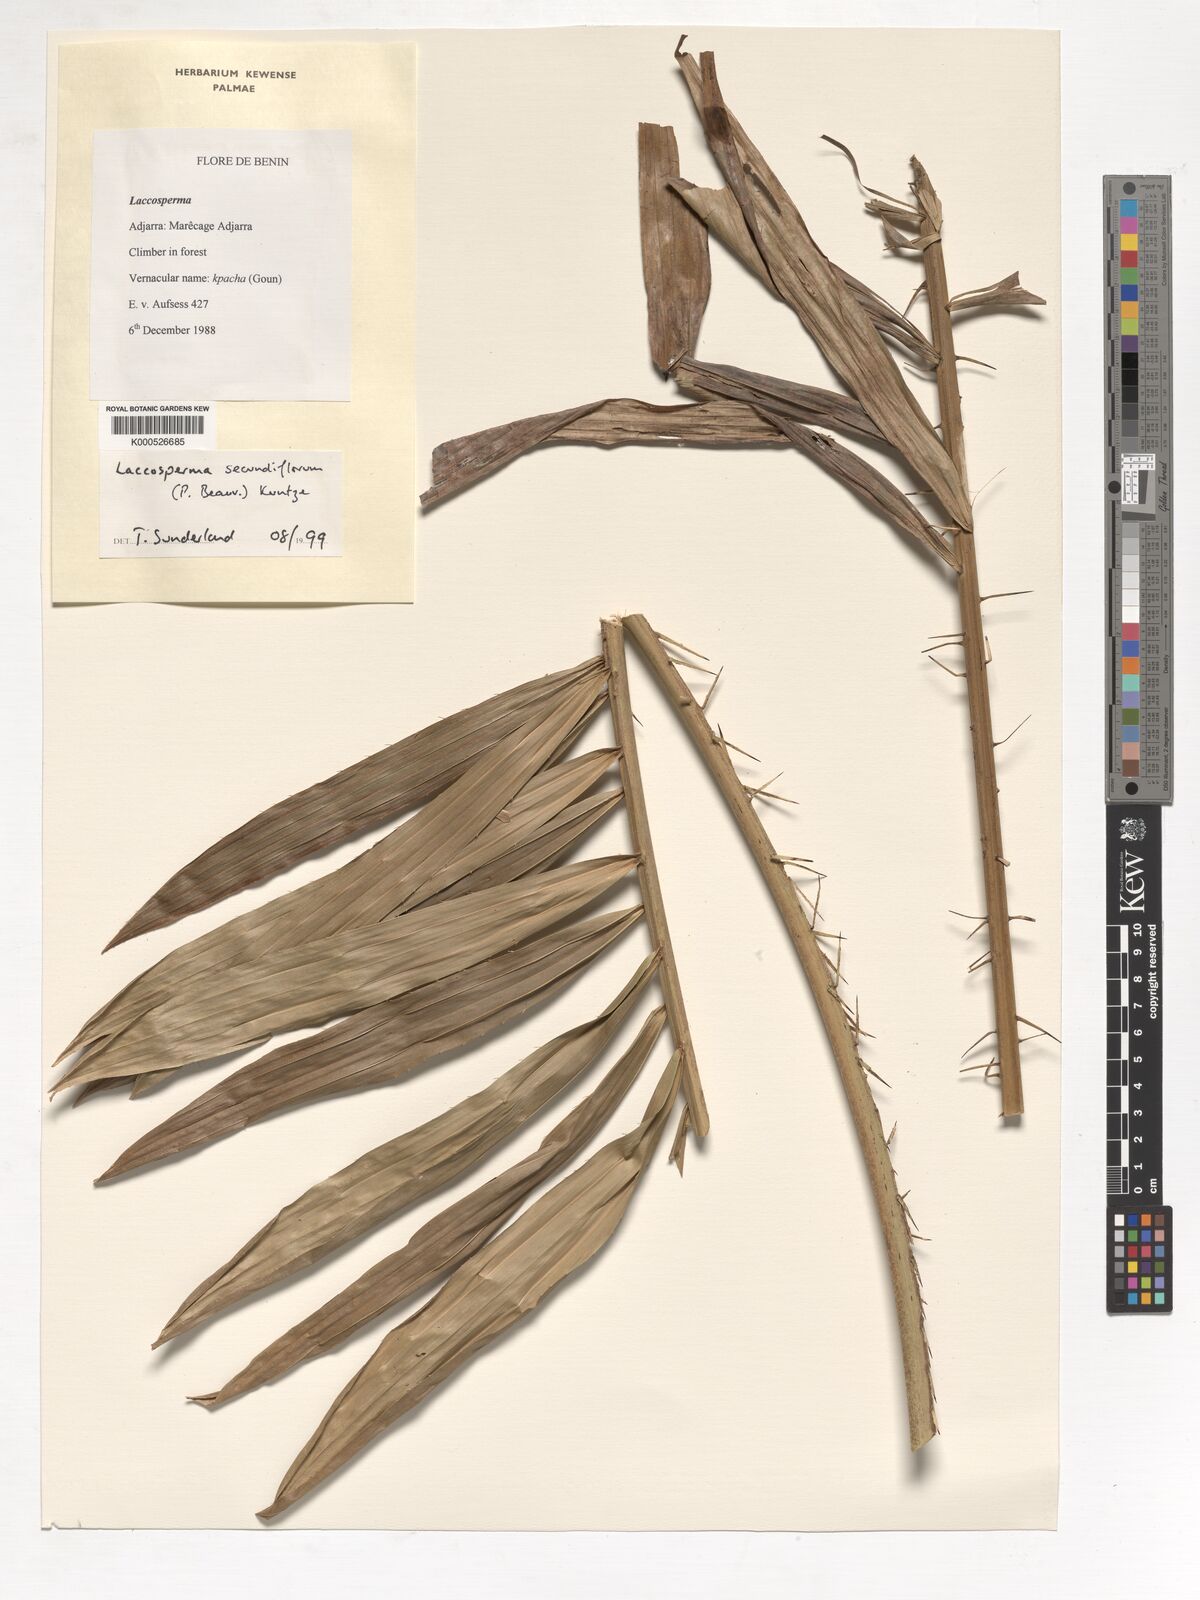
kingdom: Plantae
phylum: Tracheophyta
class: Liliopsida
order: Arecales
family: Arecaceae
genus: Laccosperma
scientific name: Laccosperma secundiflorum
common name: Rattan
